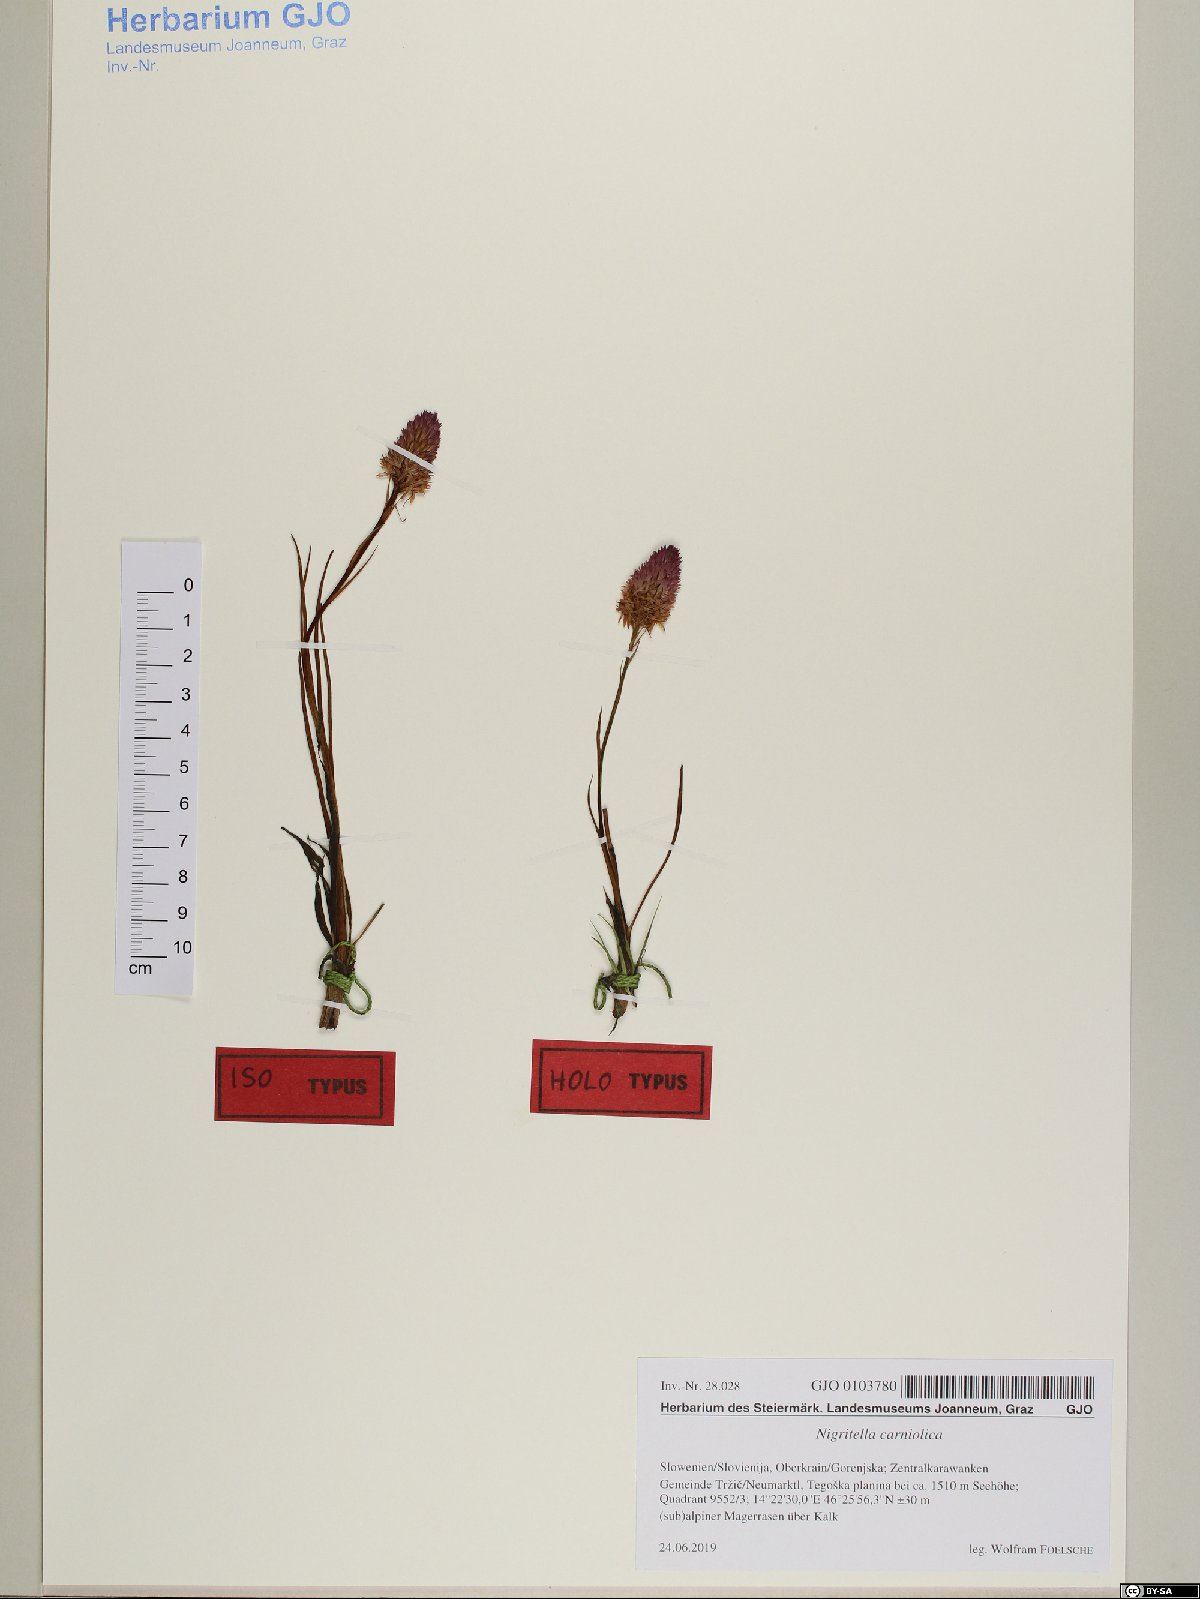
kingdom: Plantae
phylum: Tracheophyta
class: Liliopsida
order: Asparagales
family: Orchidaceae
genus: Gymnadenia
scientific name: Gymnadenia lithopolitanica
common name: Austrian gymnadenia
